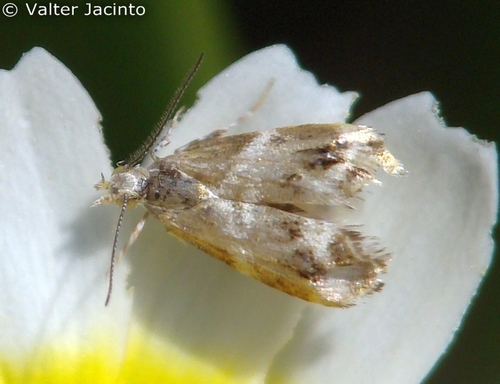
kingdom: Animalia
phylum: Arthropoda
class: Insecta
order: Lepidoptera
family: Choreutidae
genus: Tebenna
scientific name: Tebenna micalis
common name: Vagrant twitcher
